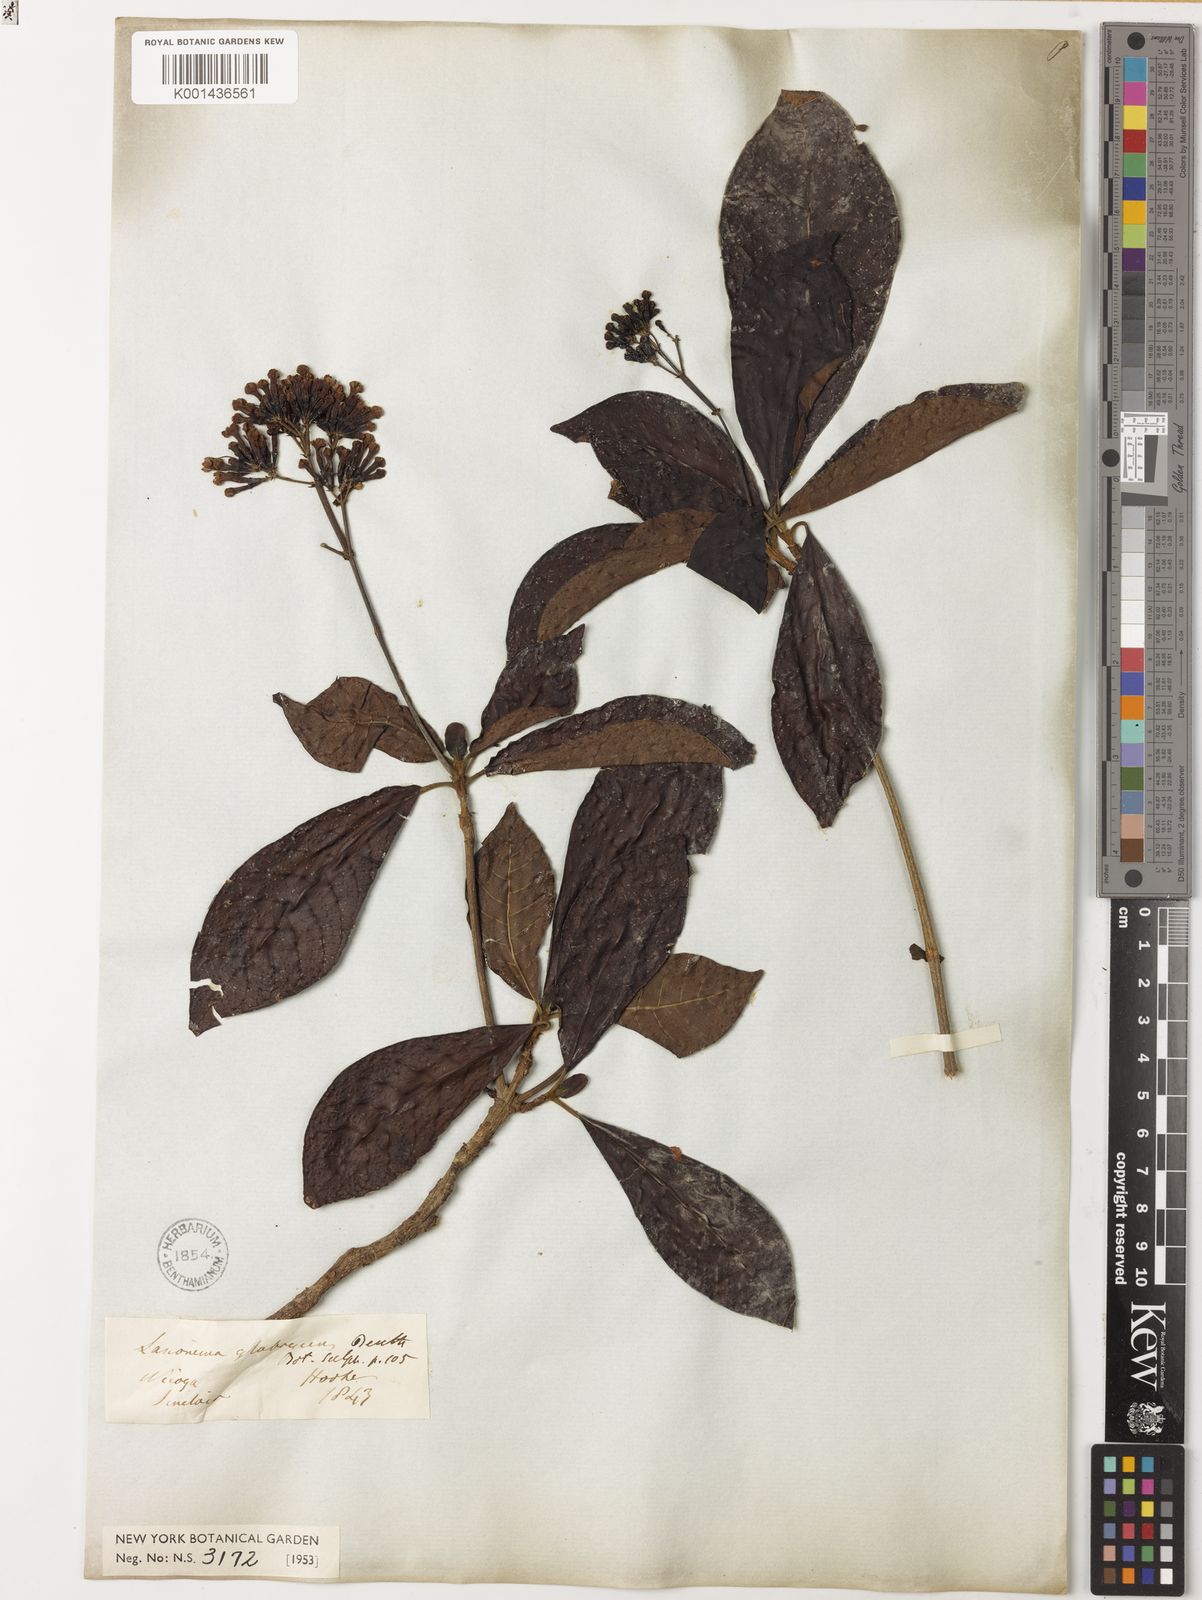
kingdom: Plantae
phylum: Tracheophyta
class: Magnoliopsida
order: Gentianales
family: Rubiaceae
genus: Macrocnemum
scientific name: Macrocnemum roseum
